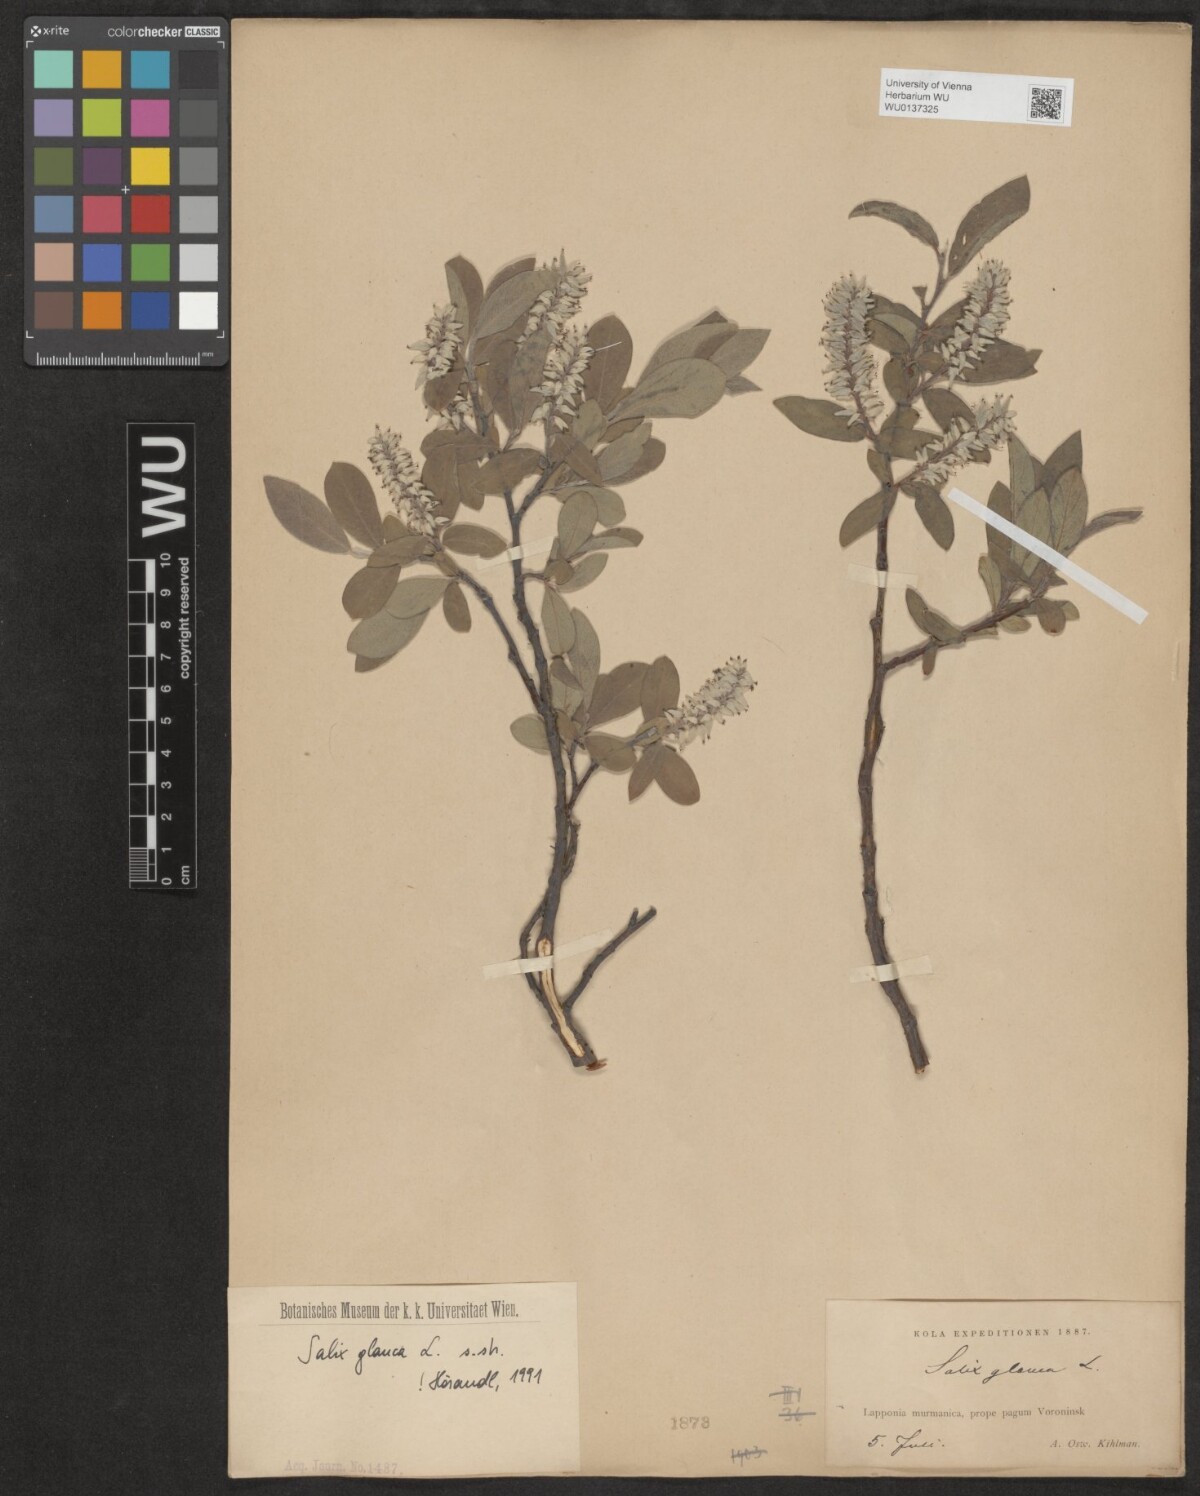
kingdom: Plantae
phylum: Tracheophyta
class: Magnoliopsida
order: Malpighiales
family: Salicaceae
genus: Salix
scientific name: Salix glauca
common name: Glaucous willow
